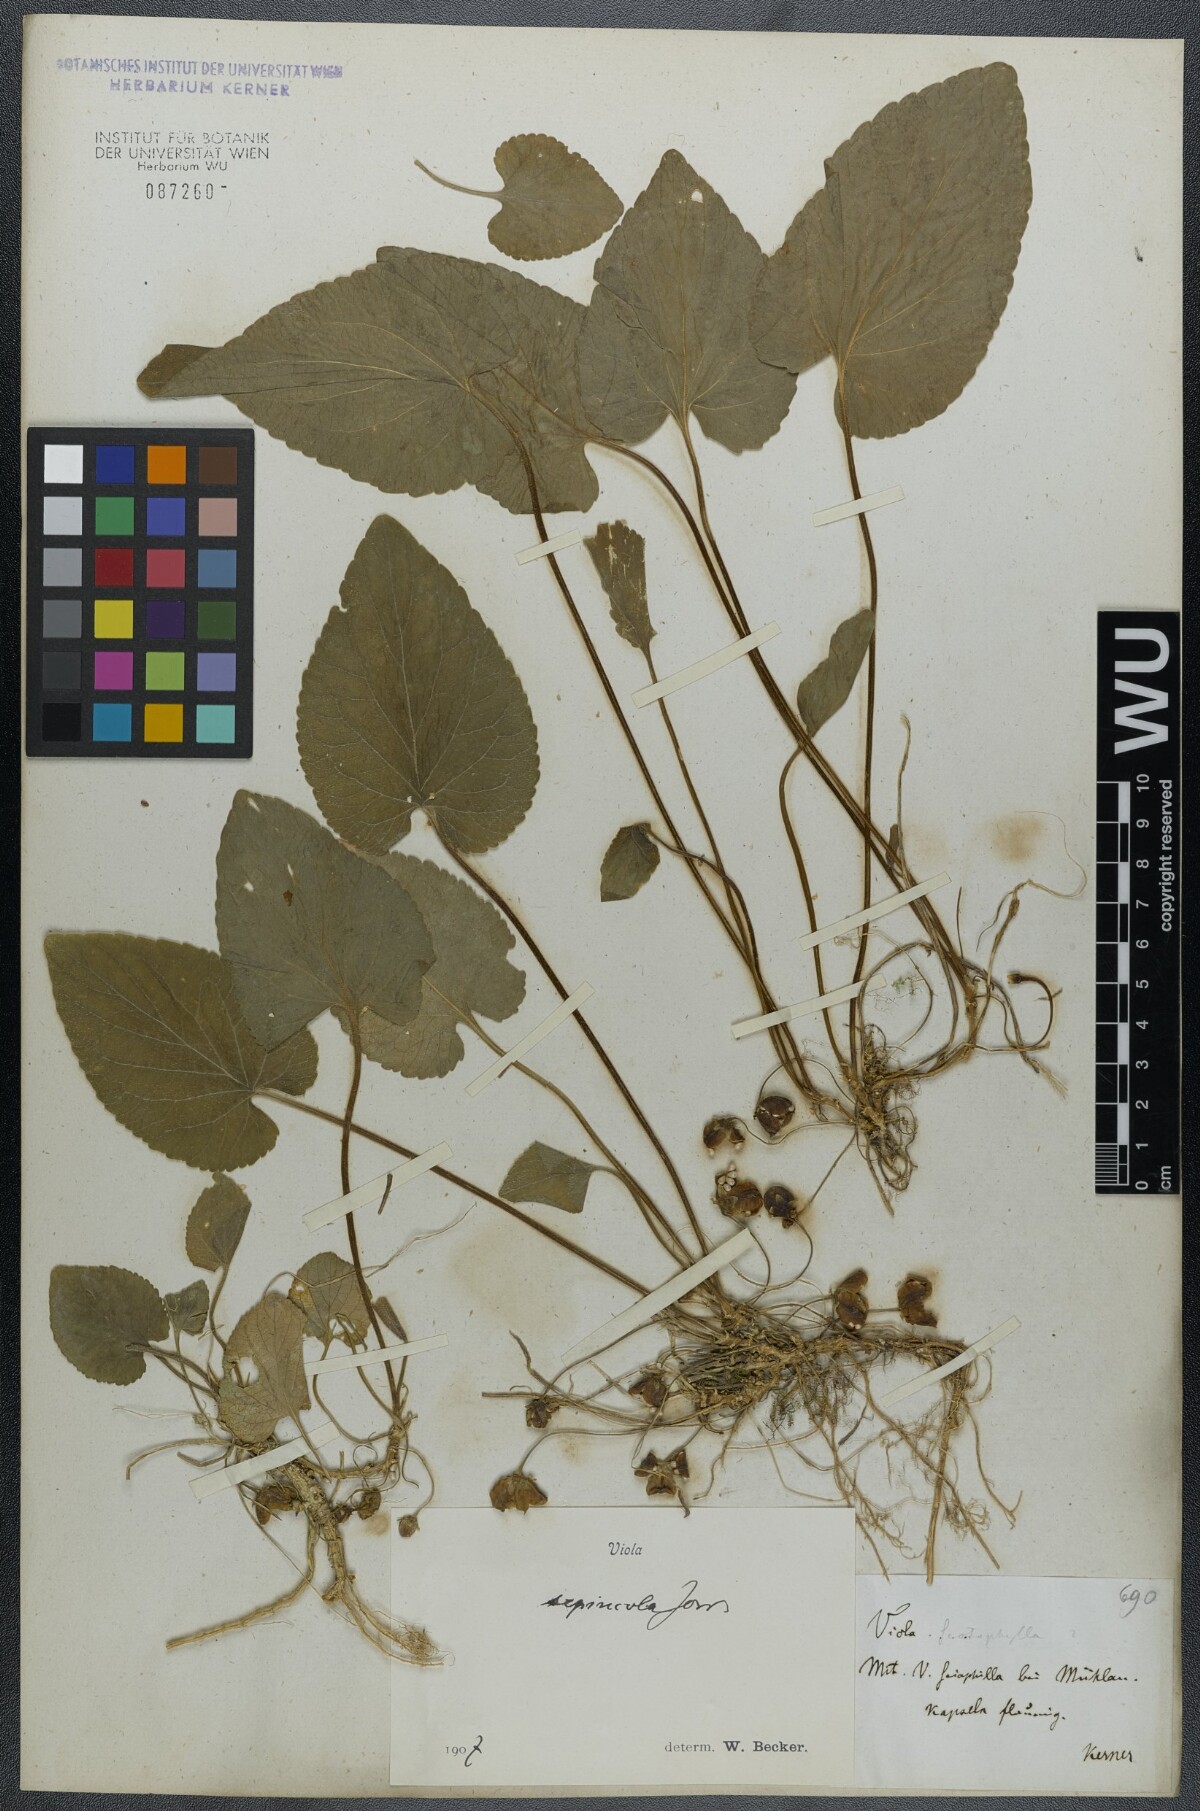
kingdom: Plantae
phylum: Tracheophyta
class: Magnoliopsida
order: Malpighiales
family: Violaceae
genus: Viola
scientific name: Viola suavis
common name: Russian violet
